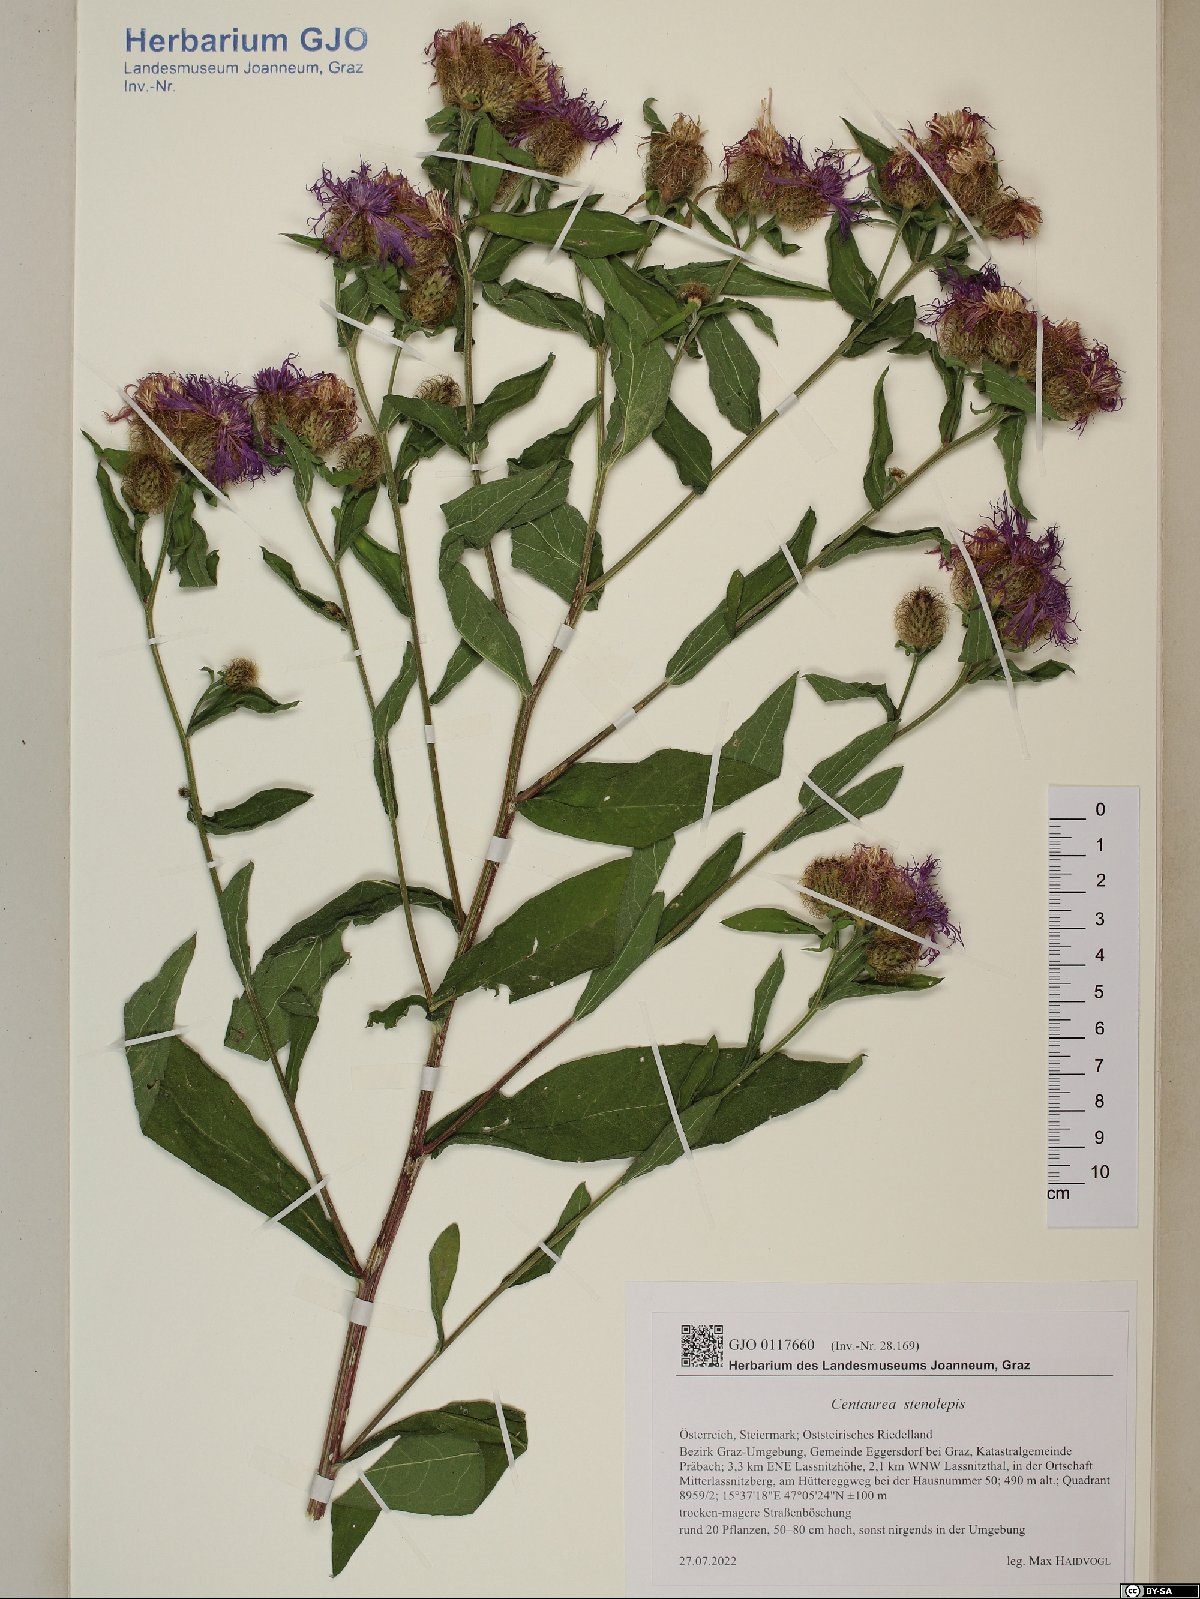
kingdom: Plantae
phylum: Tracheophyta
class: Magnoliopsida
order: Asterales
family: Asteraceae
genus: Centaurea
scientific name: Centaurea stenolepis
